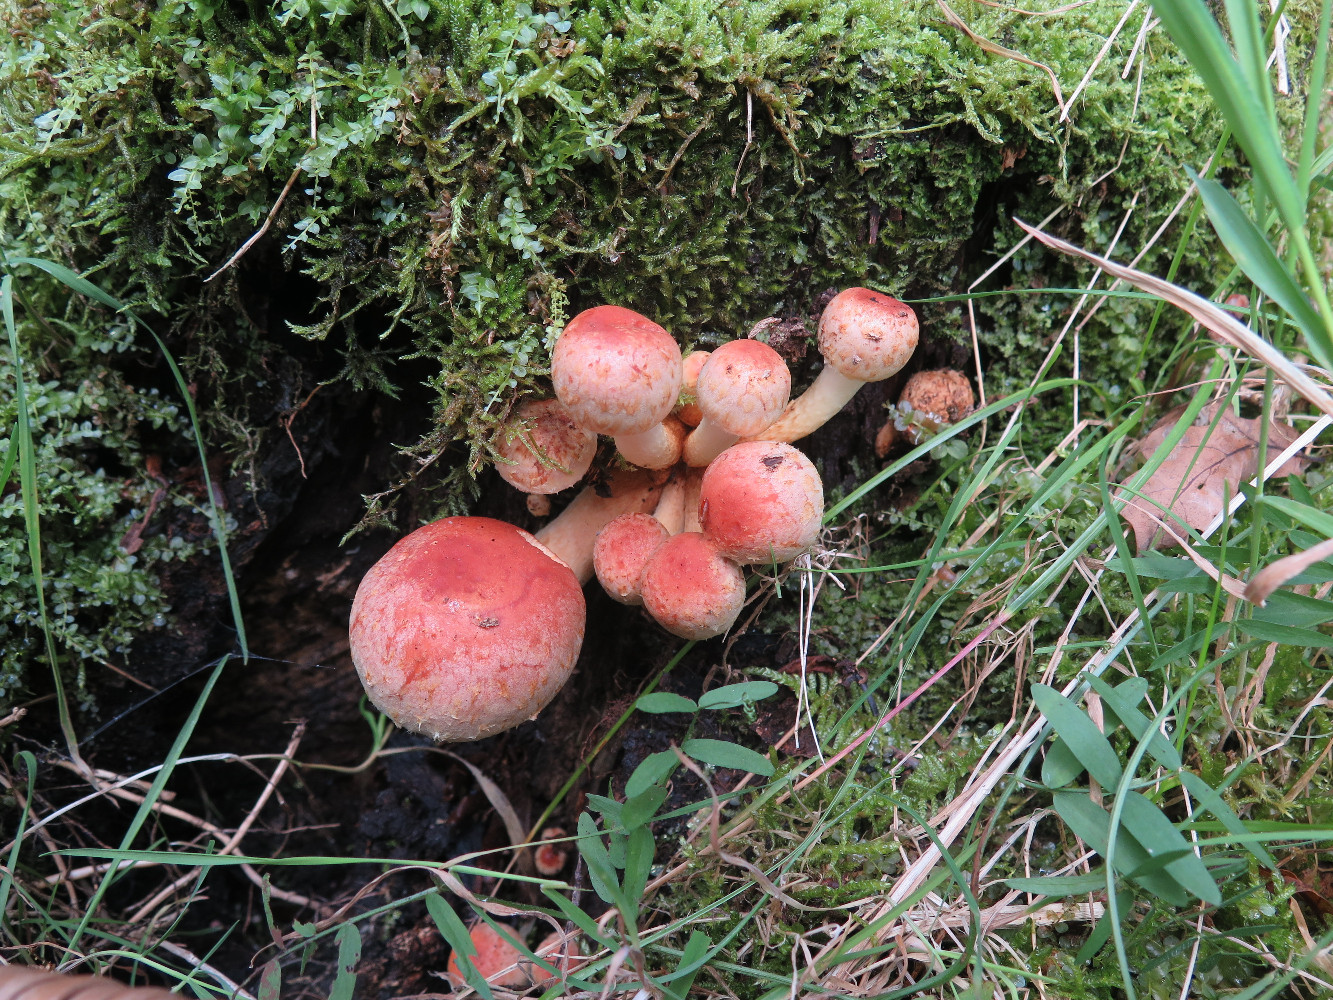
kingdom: Fungi
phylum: Basidiomycota
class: Agaricomycetes
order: Agaricales
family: Strophariaceae
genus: Hypholoma
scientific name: Hypholoma lateritium
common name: teglrød svovlhat
